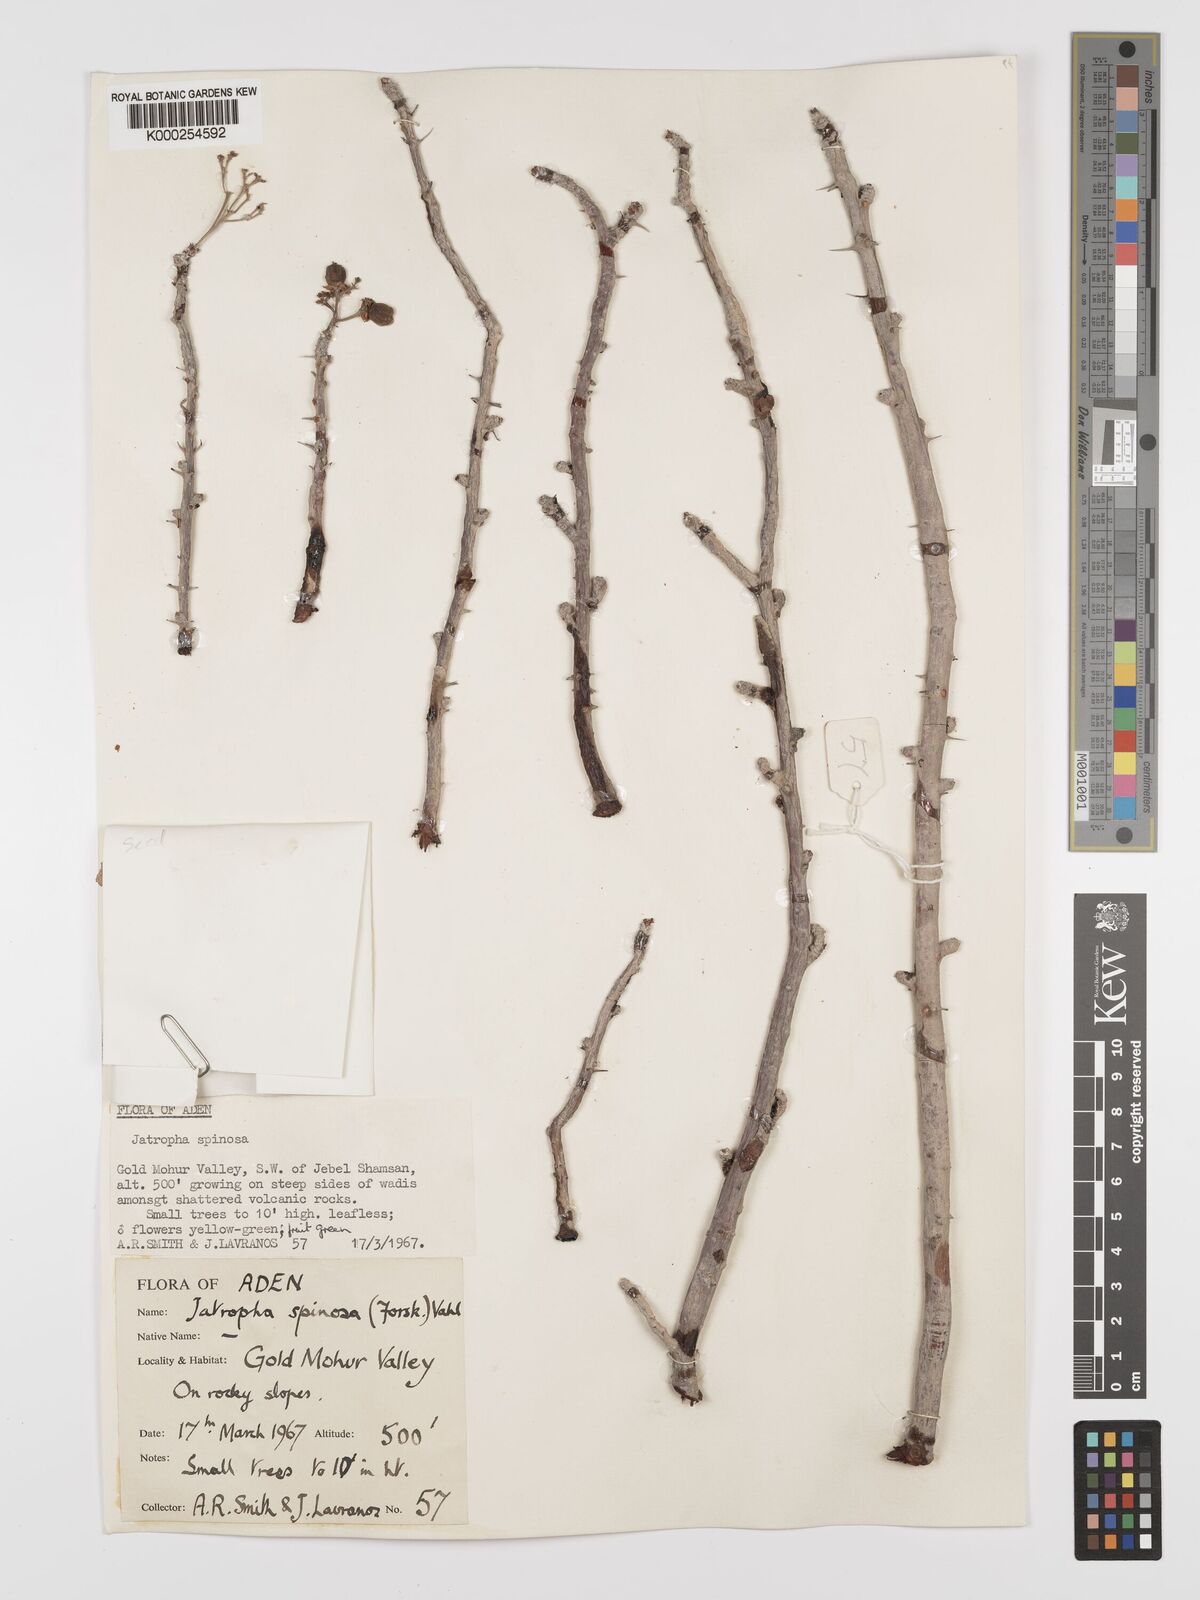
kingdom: Plantae
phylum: Tracheophyta
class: Magnoliopsida
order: Malpighiales
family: Euphorbiaceae
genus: Jatropha
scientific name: Jatropha spinosa
